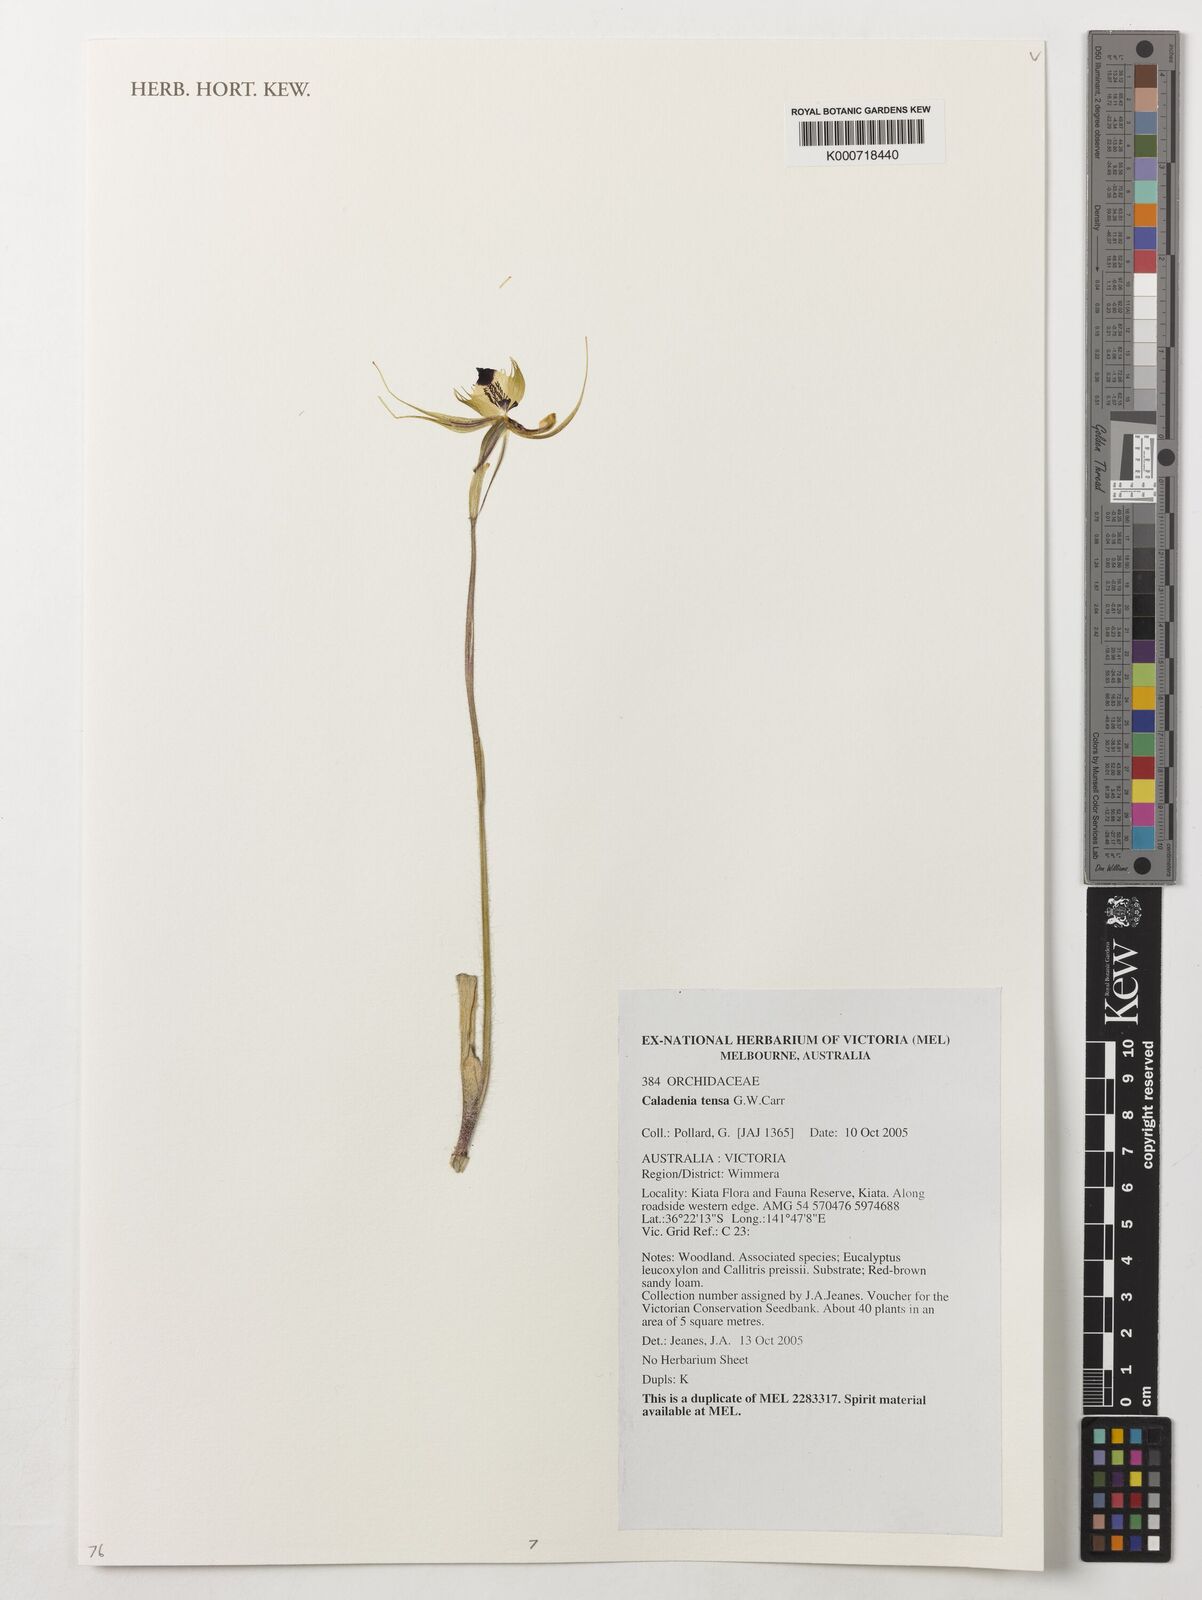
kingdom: Plantae
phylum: Tracheophyta
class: Liliopsida
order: Asparagales
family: Orchidaceae
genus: Caladenia
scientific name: Caladenia tensa
